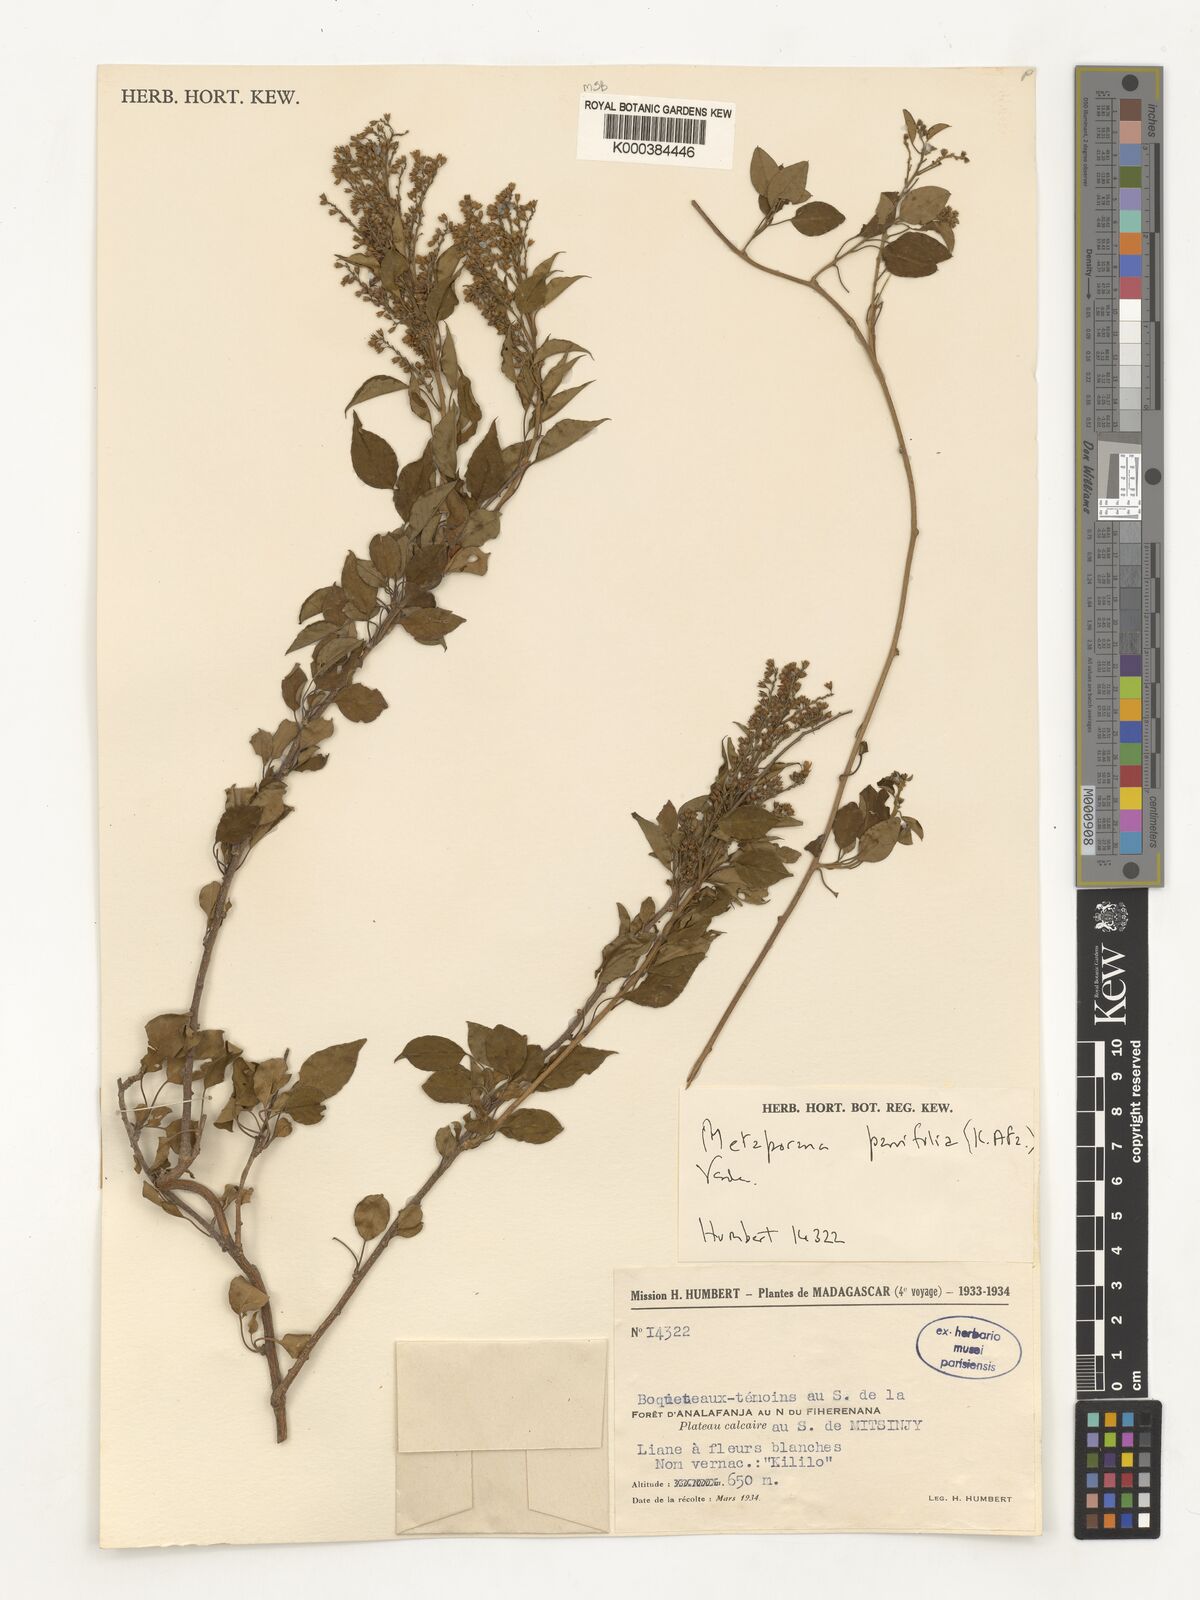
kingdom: Plantae
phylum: Tracheophyta
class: Magnoliopsida
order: Solanales
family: Convolvulaceae
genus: Metaporana
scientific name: Metaporana parvifolia
